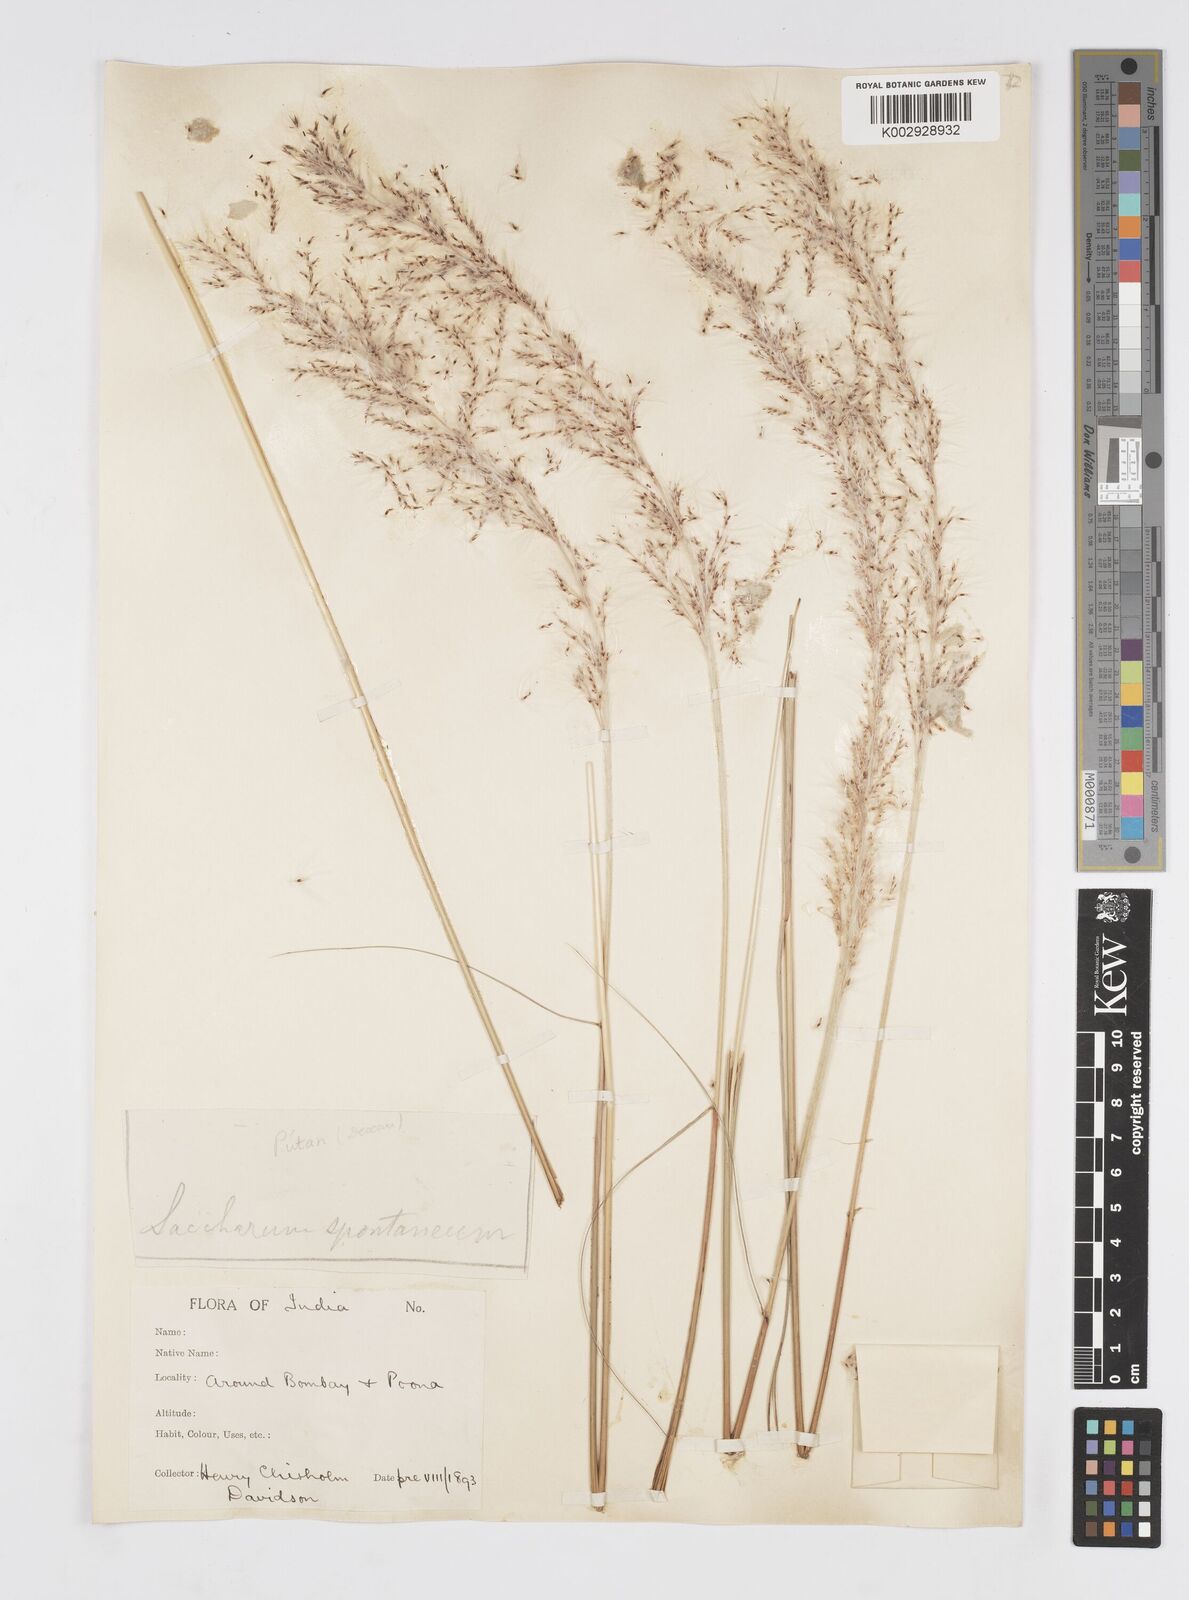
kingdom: Plantae
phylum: Tracheophyta
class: Liliopsida
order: Poales
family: Poaceae
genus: Saccharum
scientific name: Saccharum spontaneum
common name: Wild sugarcane
